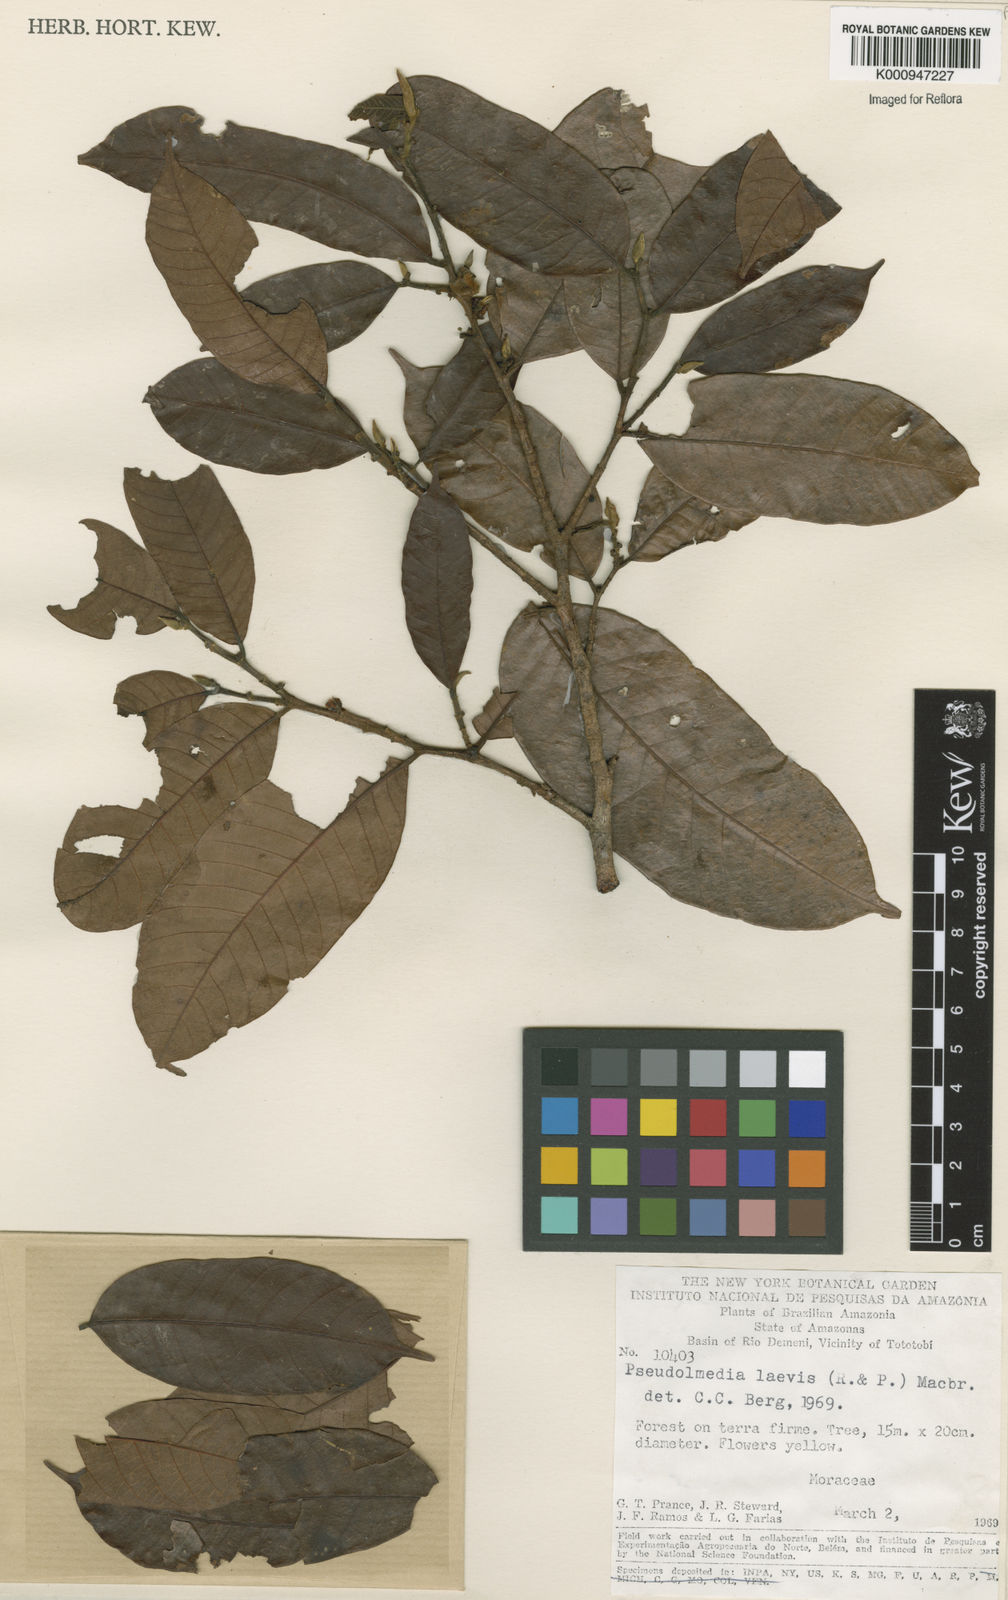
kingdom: Plantae
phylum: Tracheophyta
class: Magnoliopsida
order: Rosales
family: Moraceae
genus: Pseudolmedia
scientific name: Pseudolmedia laevis
